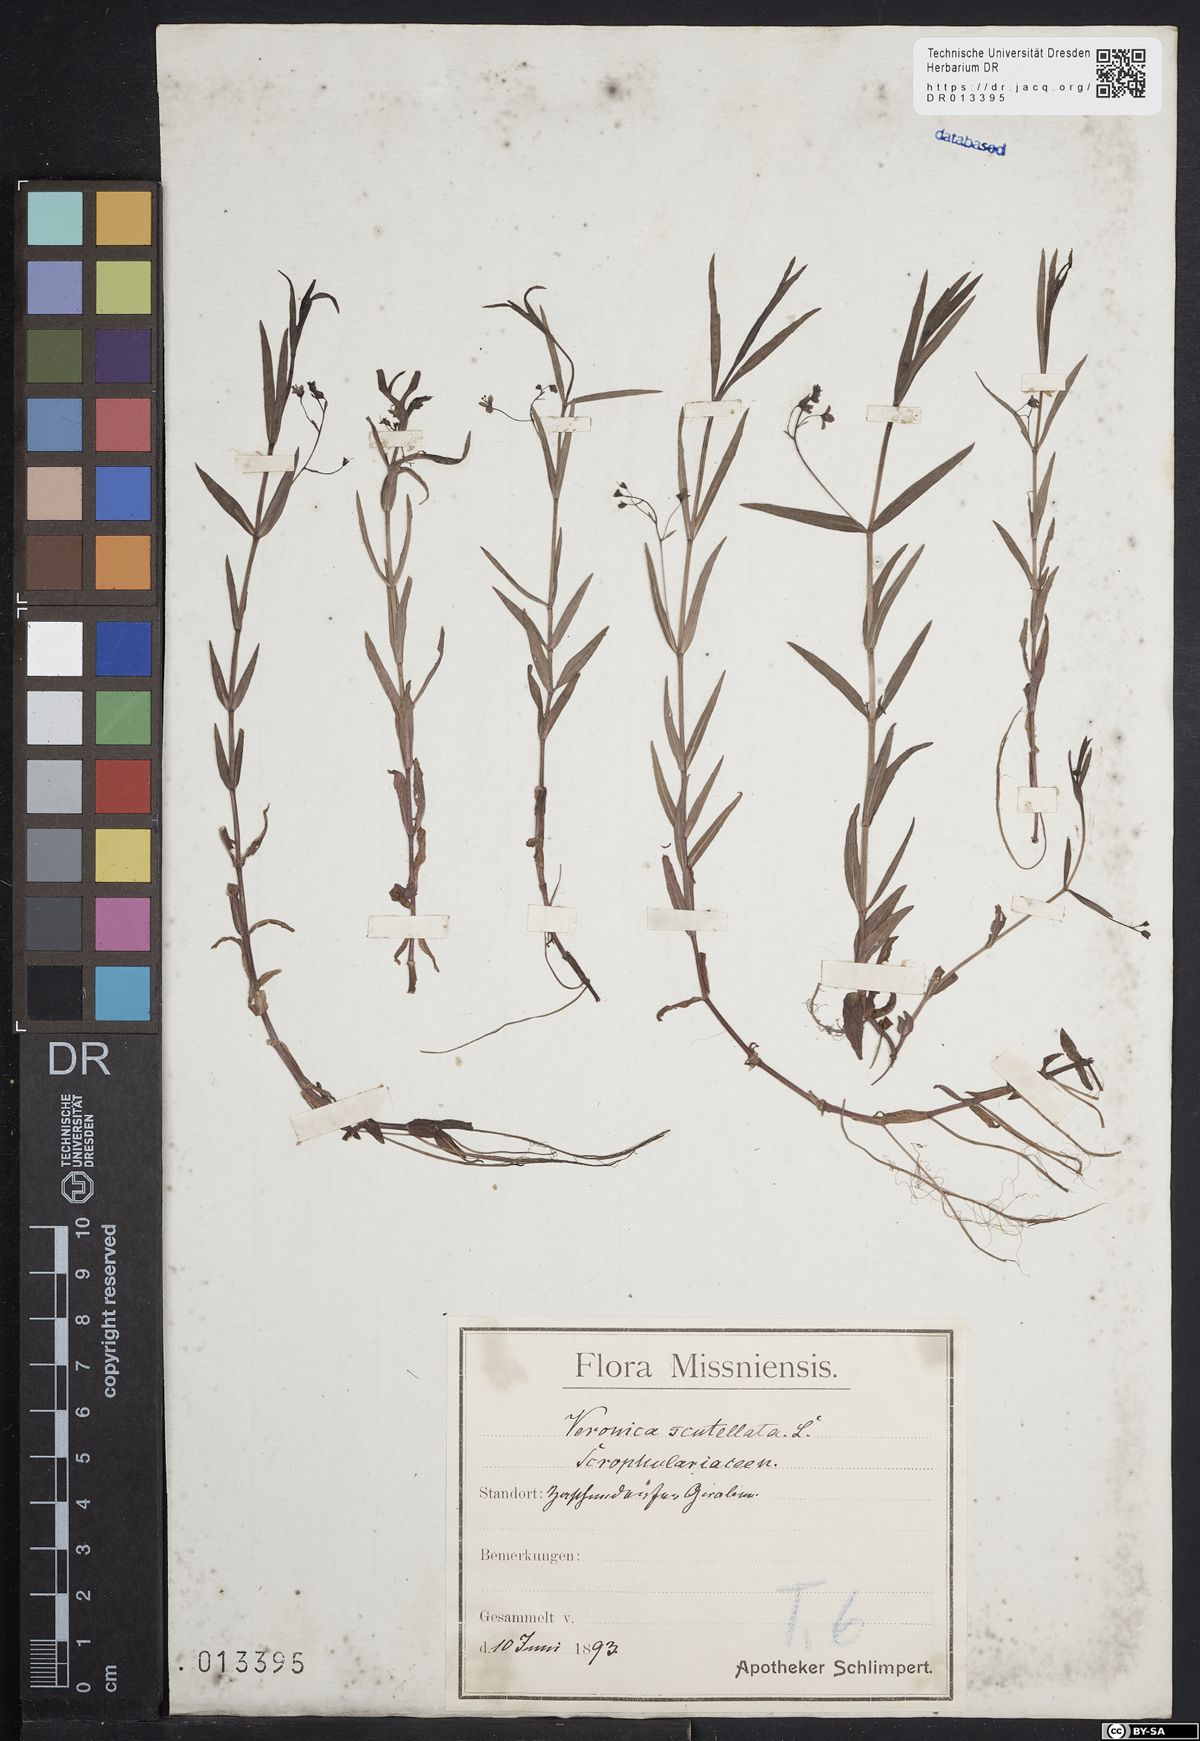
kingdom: Plantae
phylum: Tracheophyta
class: Magnoliopsida
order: Lamiales
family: Plantaginaceae
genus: Veronica
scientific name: Veronica scutellata
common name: Marsh speedwell
